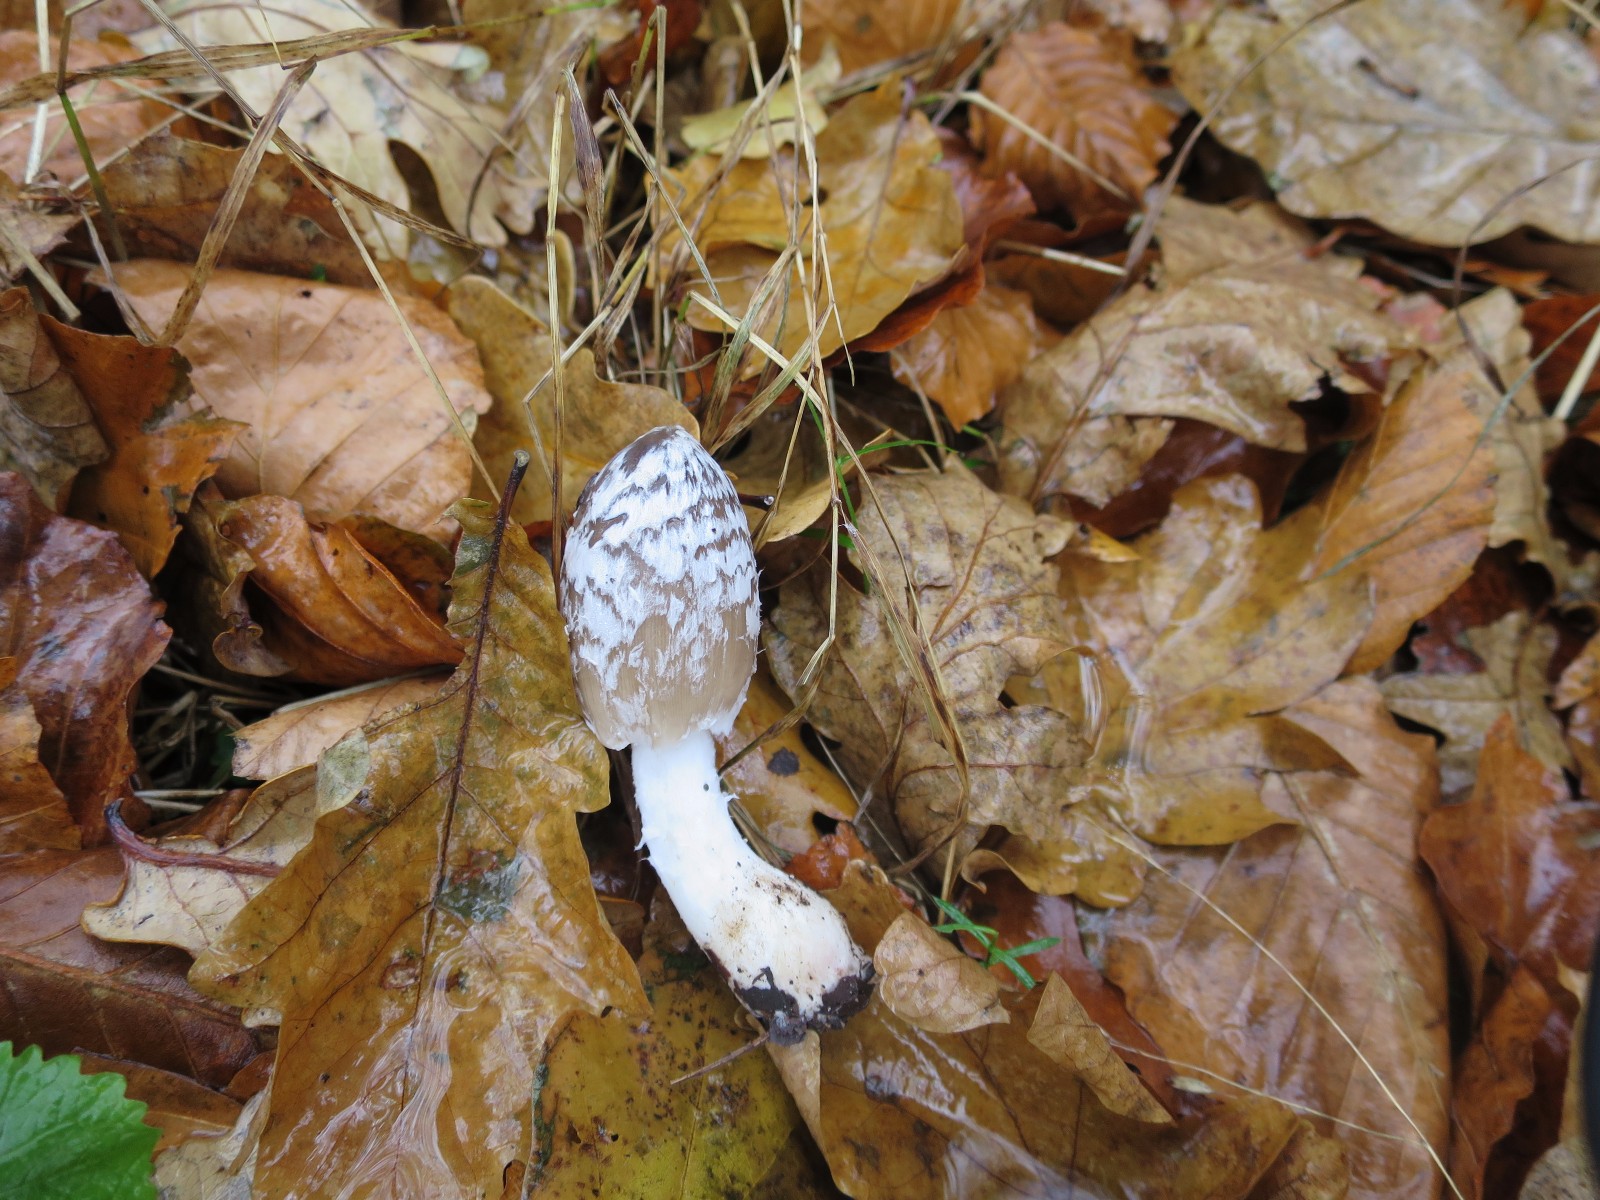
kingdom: Fungi
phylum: Basidiomycota
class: Agaricomycetes
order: Agaricales
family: Psathyrellaceae
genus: Coprinopsis
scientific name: Coprinopsis picacea
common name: skade-blækhat
